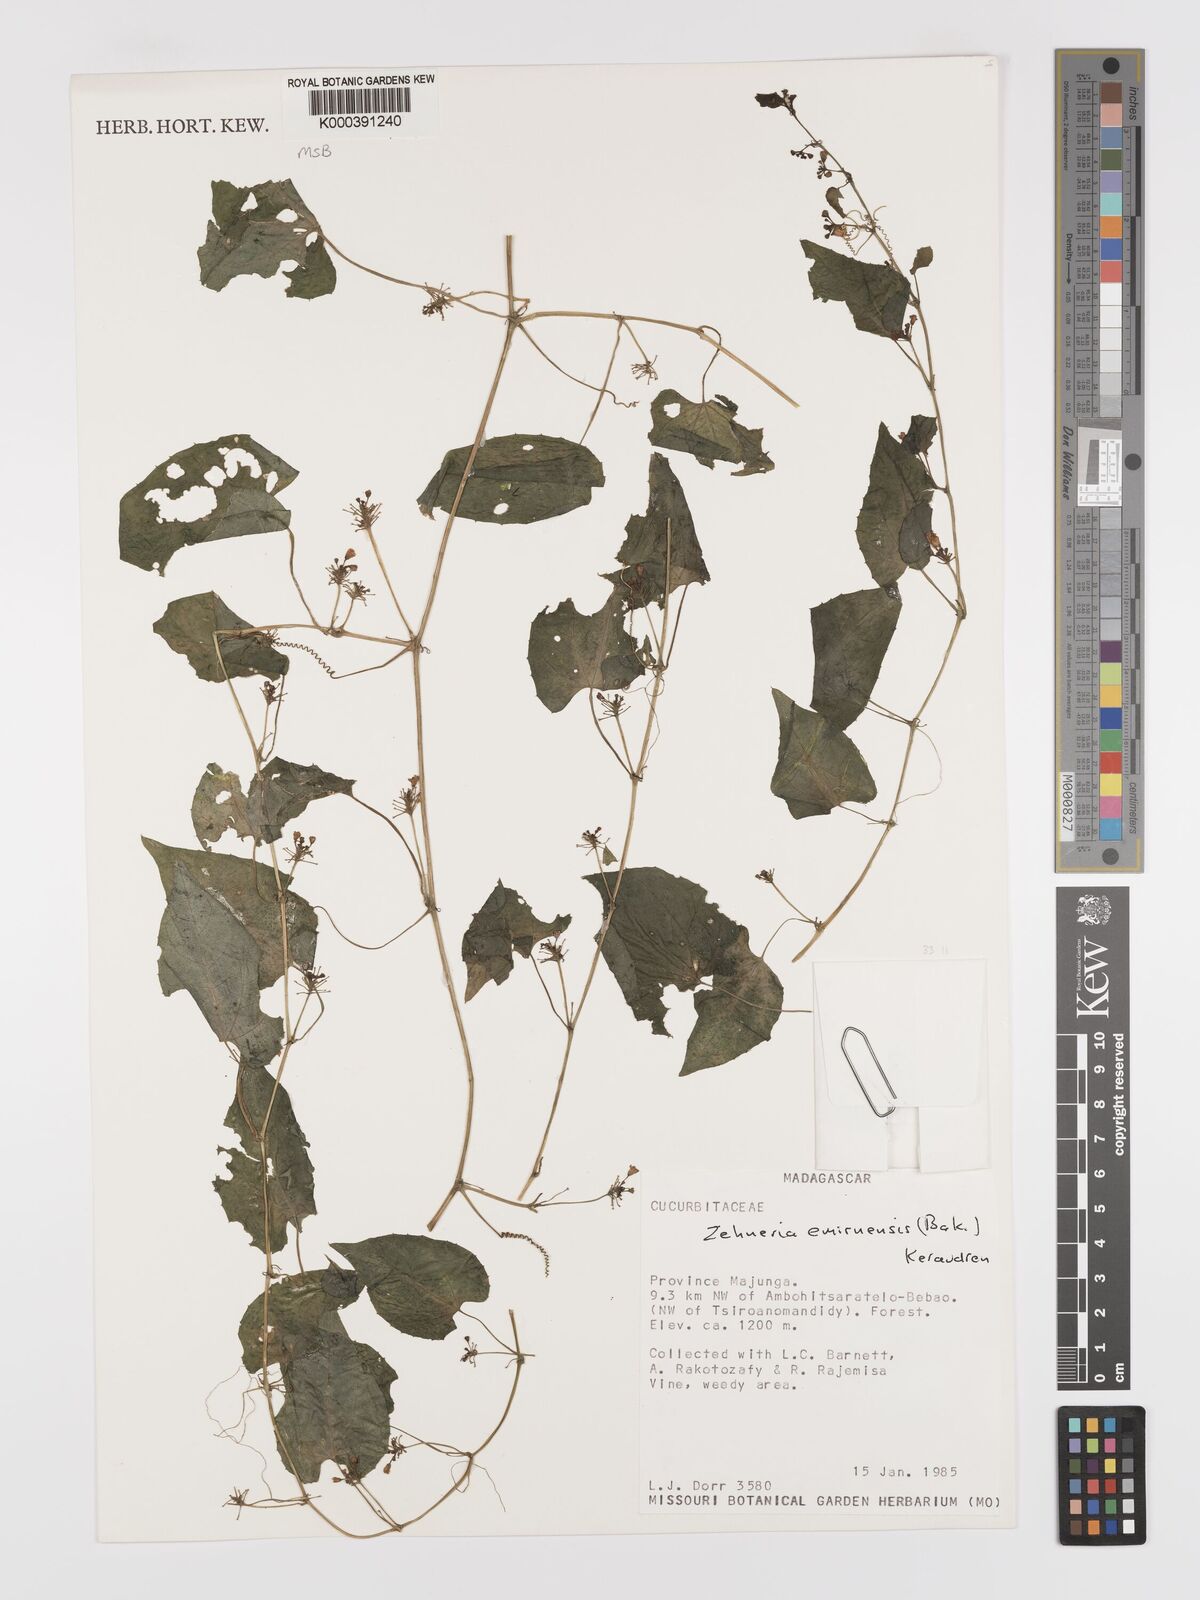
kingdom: Plantae
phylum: Tracheophyta
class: Magnoliopsida
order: Cucurbitales
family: Cucurbitaceae
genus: Zehneria
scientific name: Zehneria emirnensis
